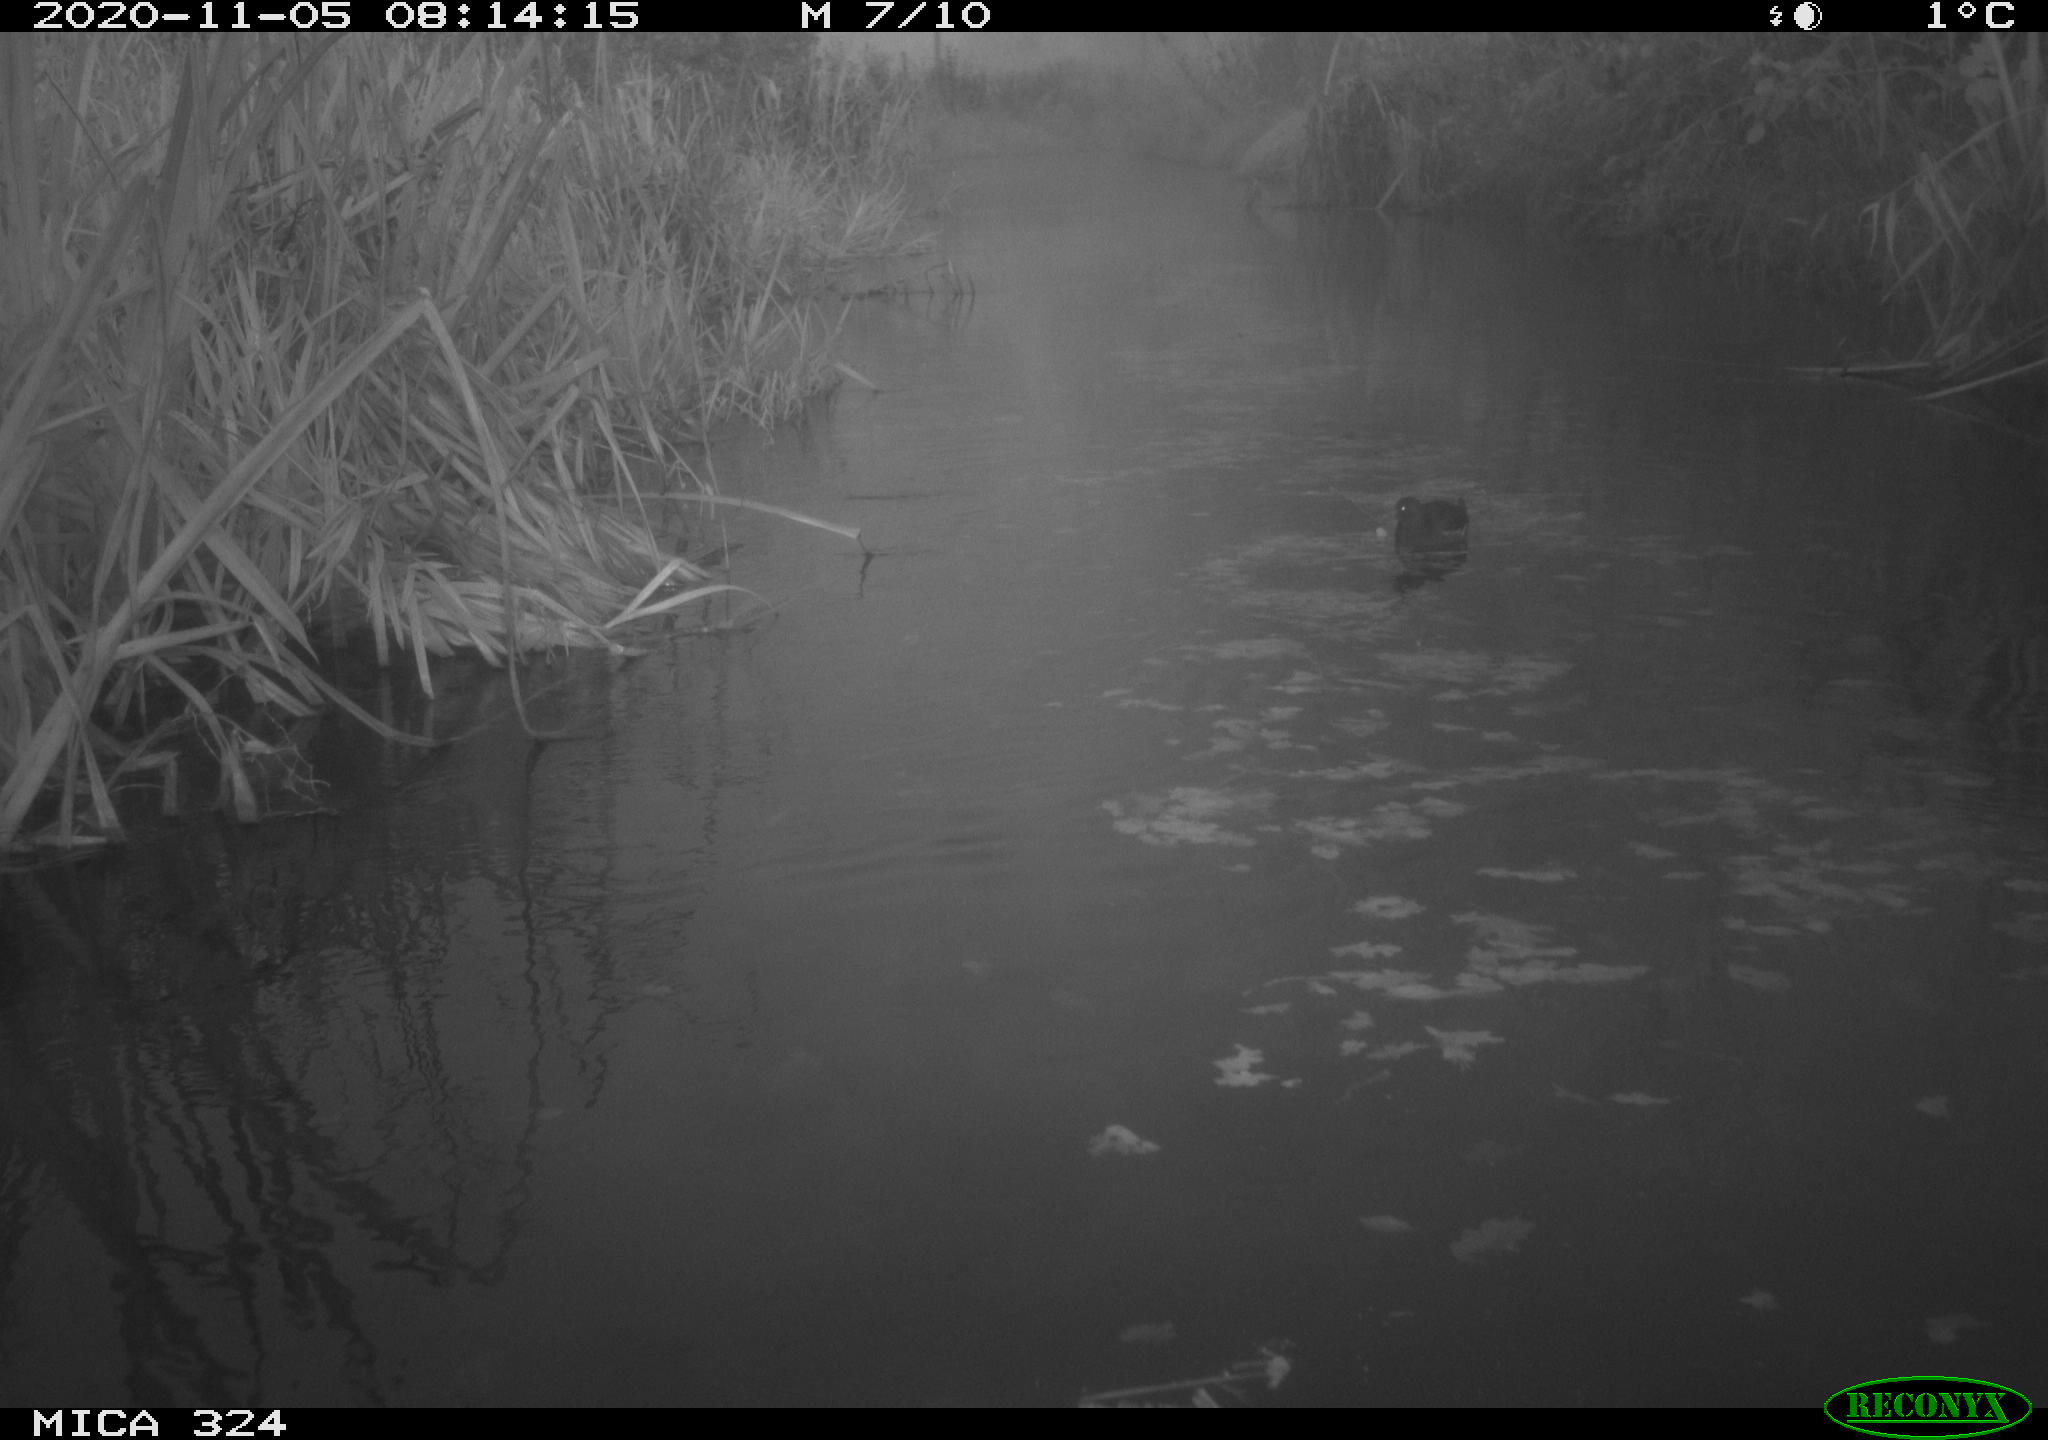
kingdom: Animalia
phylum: Chordata
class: Aves
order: Gruiformes
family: Rallidae
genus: Gallinula
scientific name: Gallinula chloropus
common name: Common moorhen
